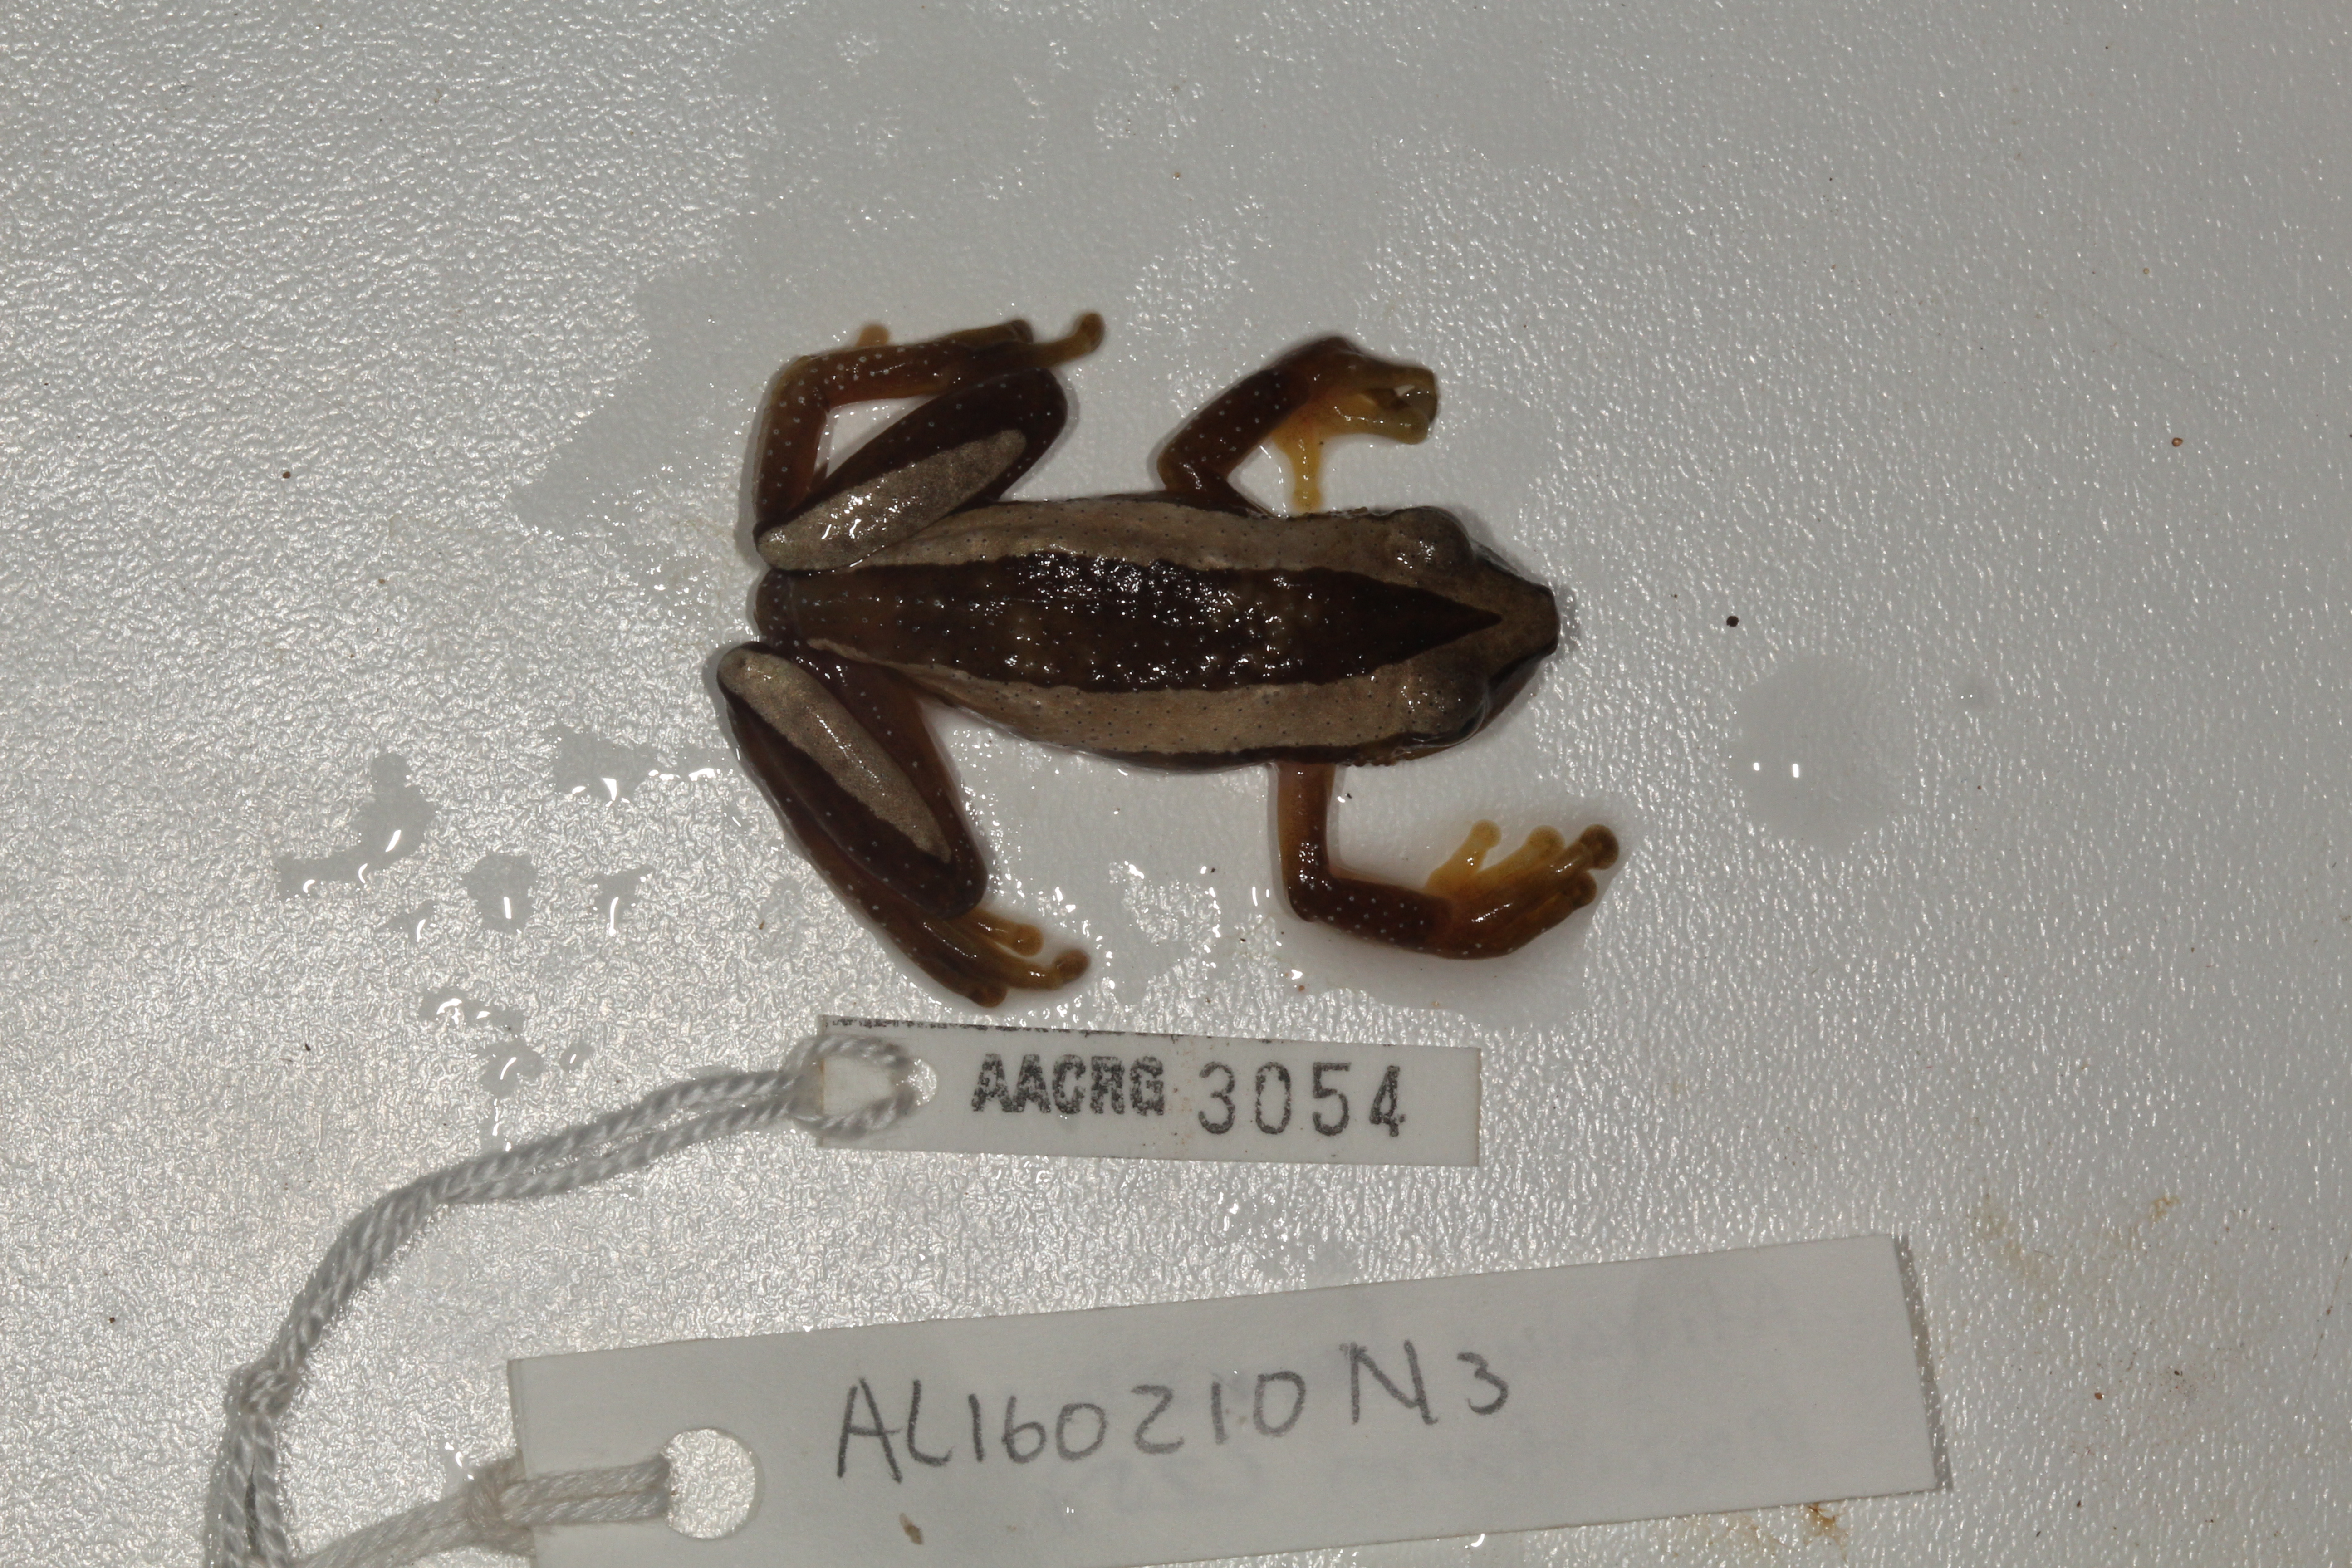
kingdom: Animalia
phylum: Chordata
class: Amphibia
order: Anura
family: Hyperoliidae
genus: Afrixalus
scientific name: Afrixalus fornasini
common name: Fornasini's spiny reed frog
